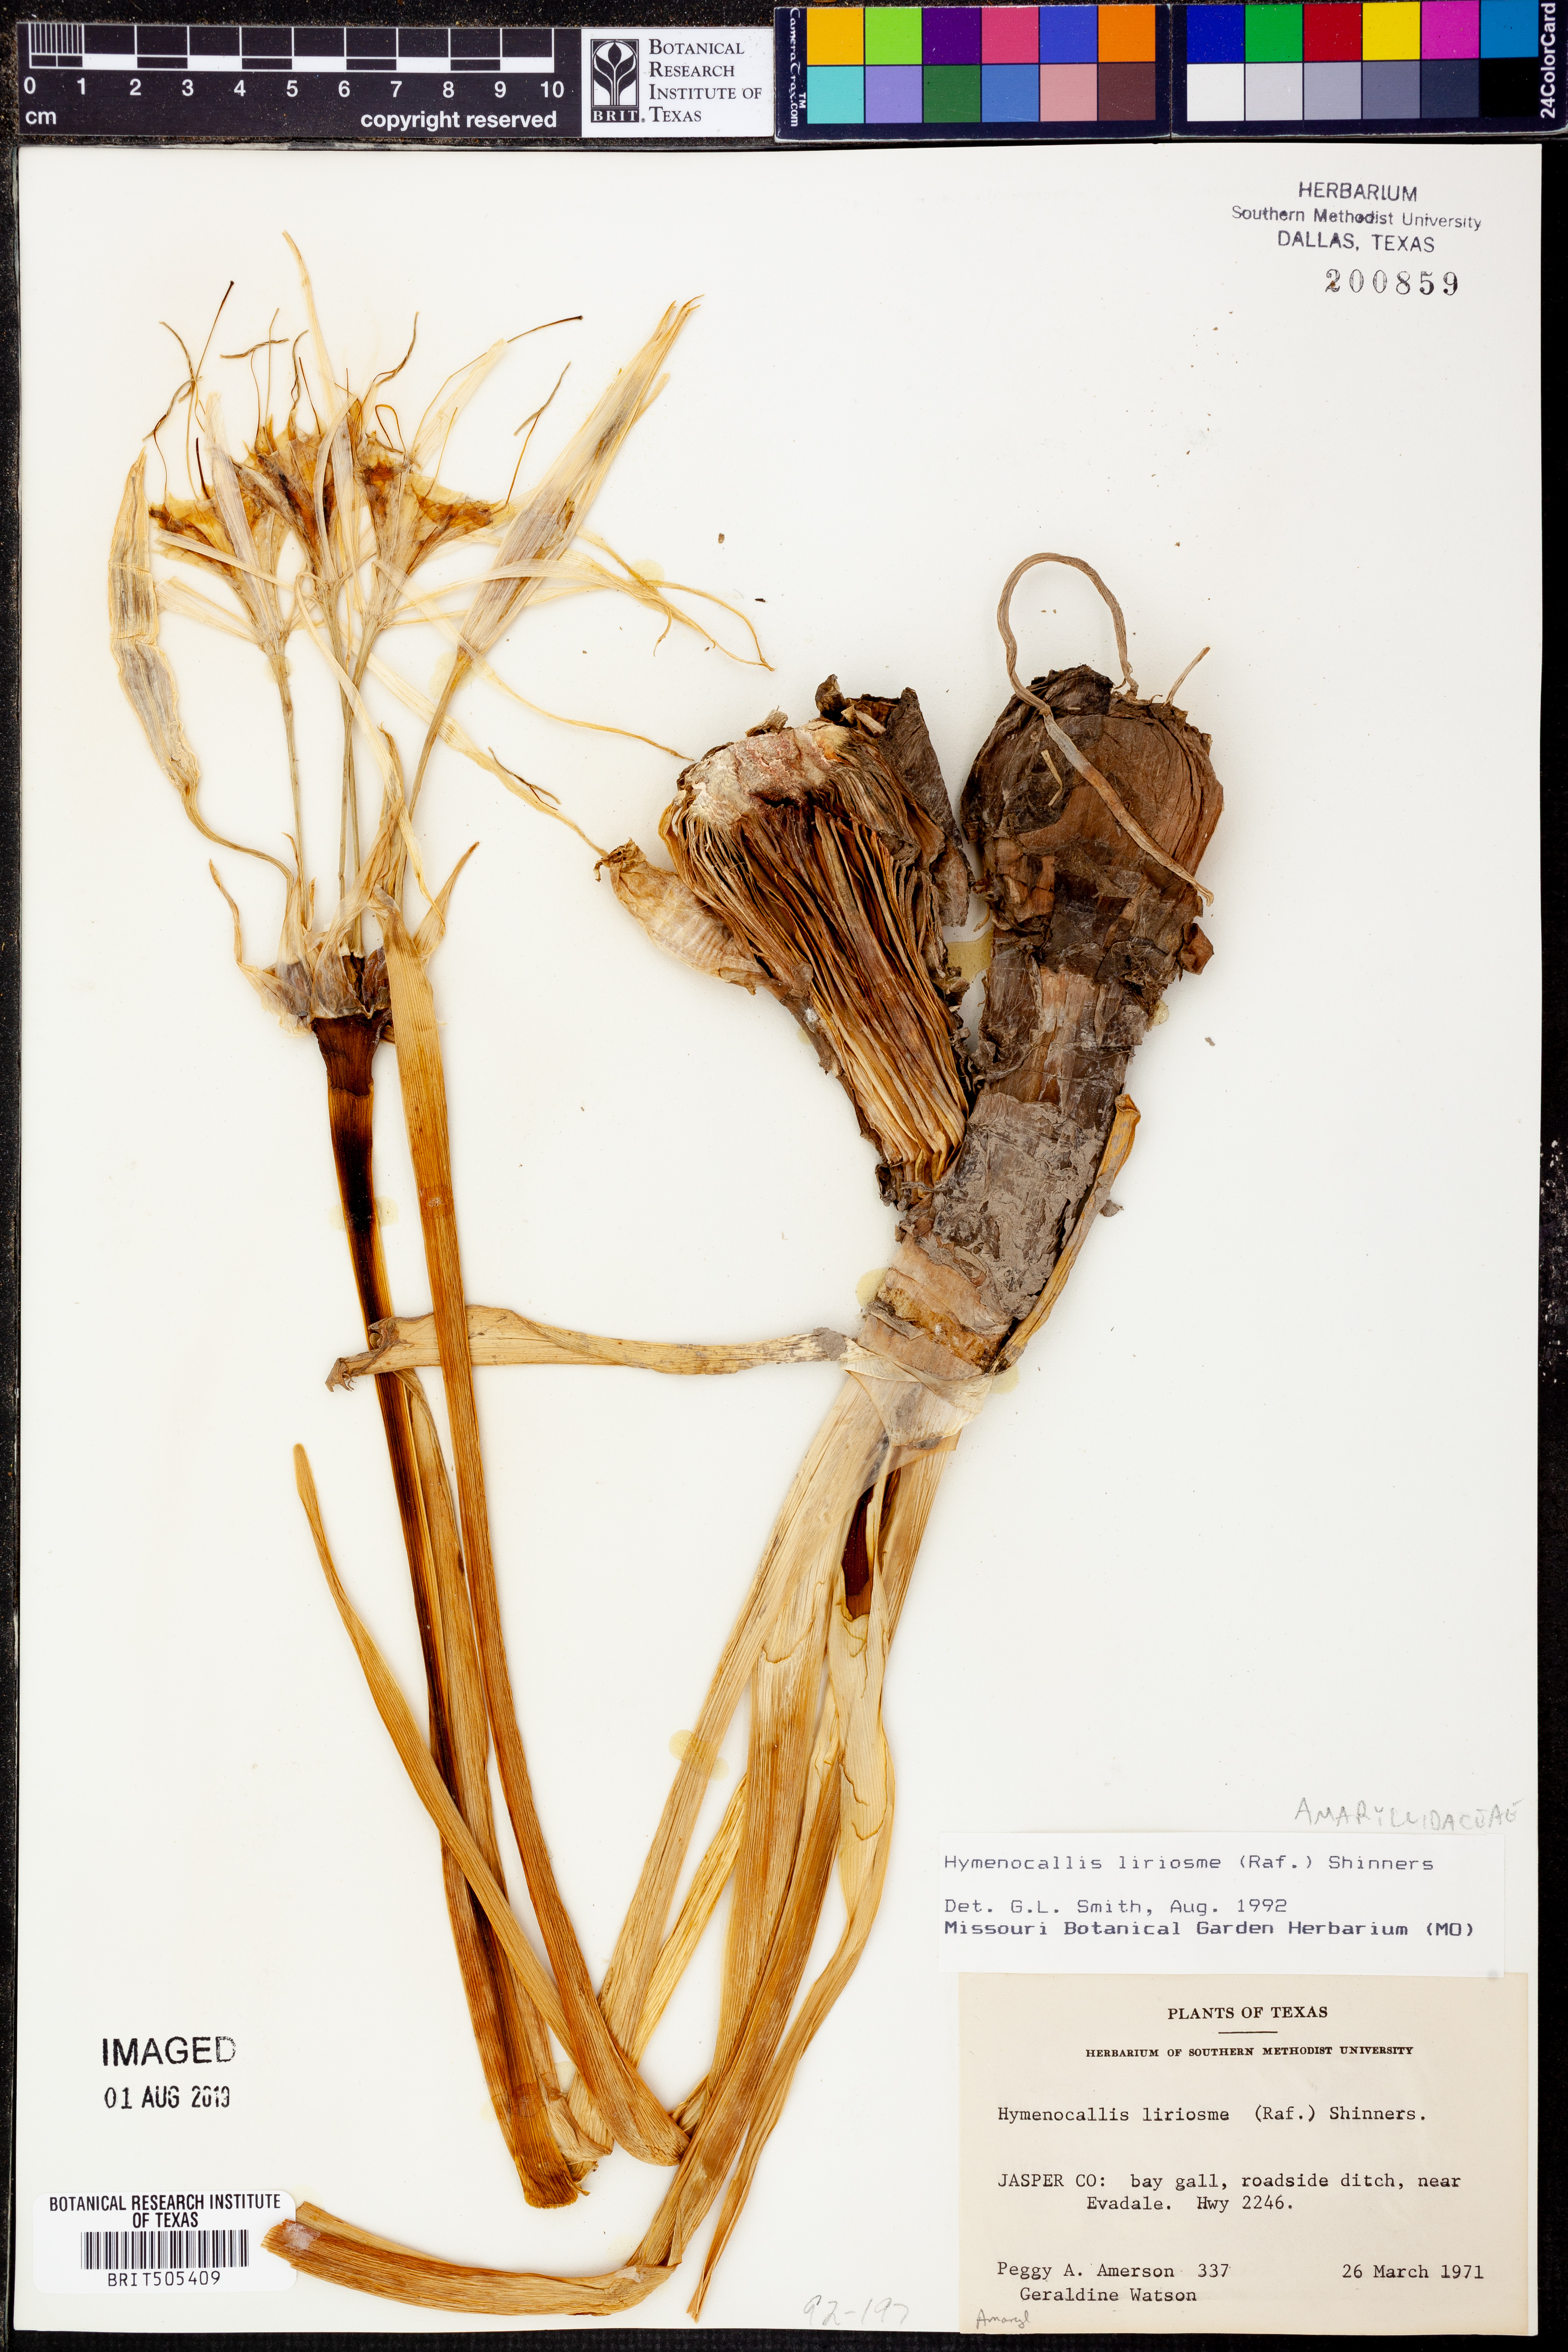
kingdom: Plantae
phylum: Tracheophyta
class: Liliopsida
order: Asparagales
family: Amaryllidaceae
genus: Hymenocallis
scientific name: Hymenocallis liriosme
